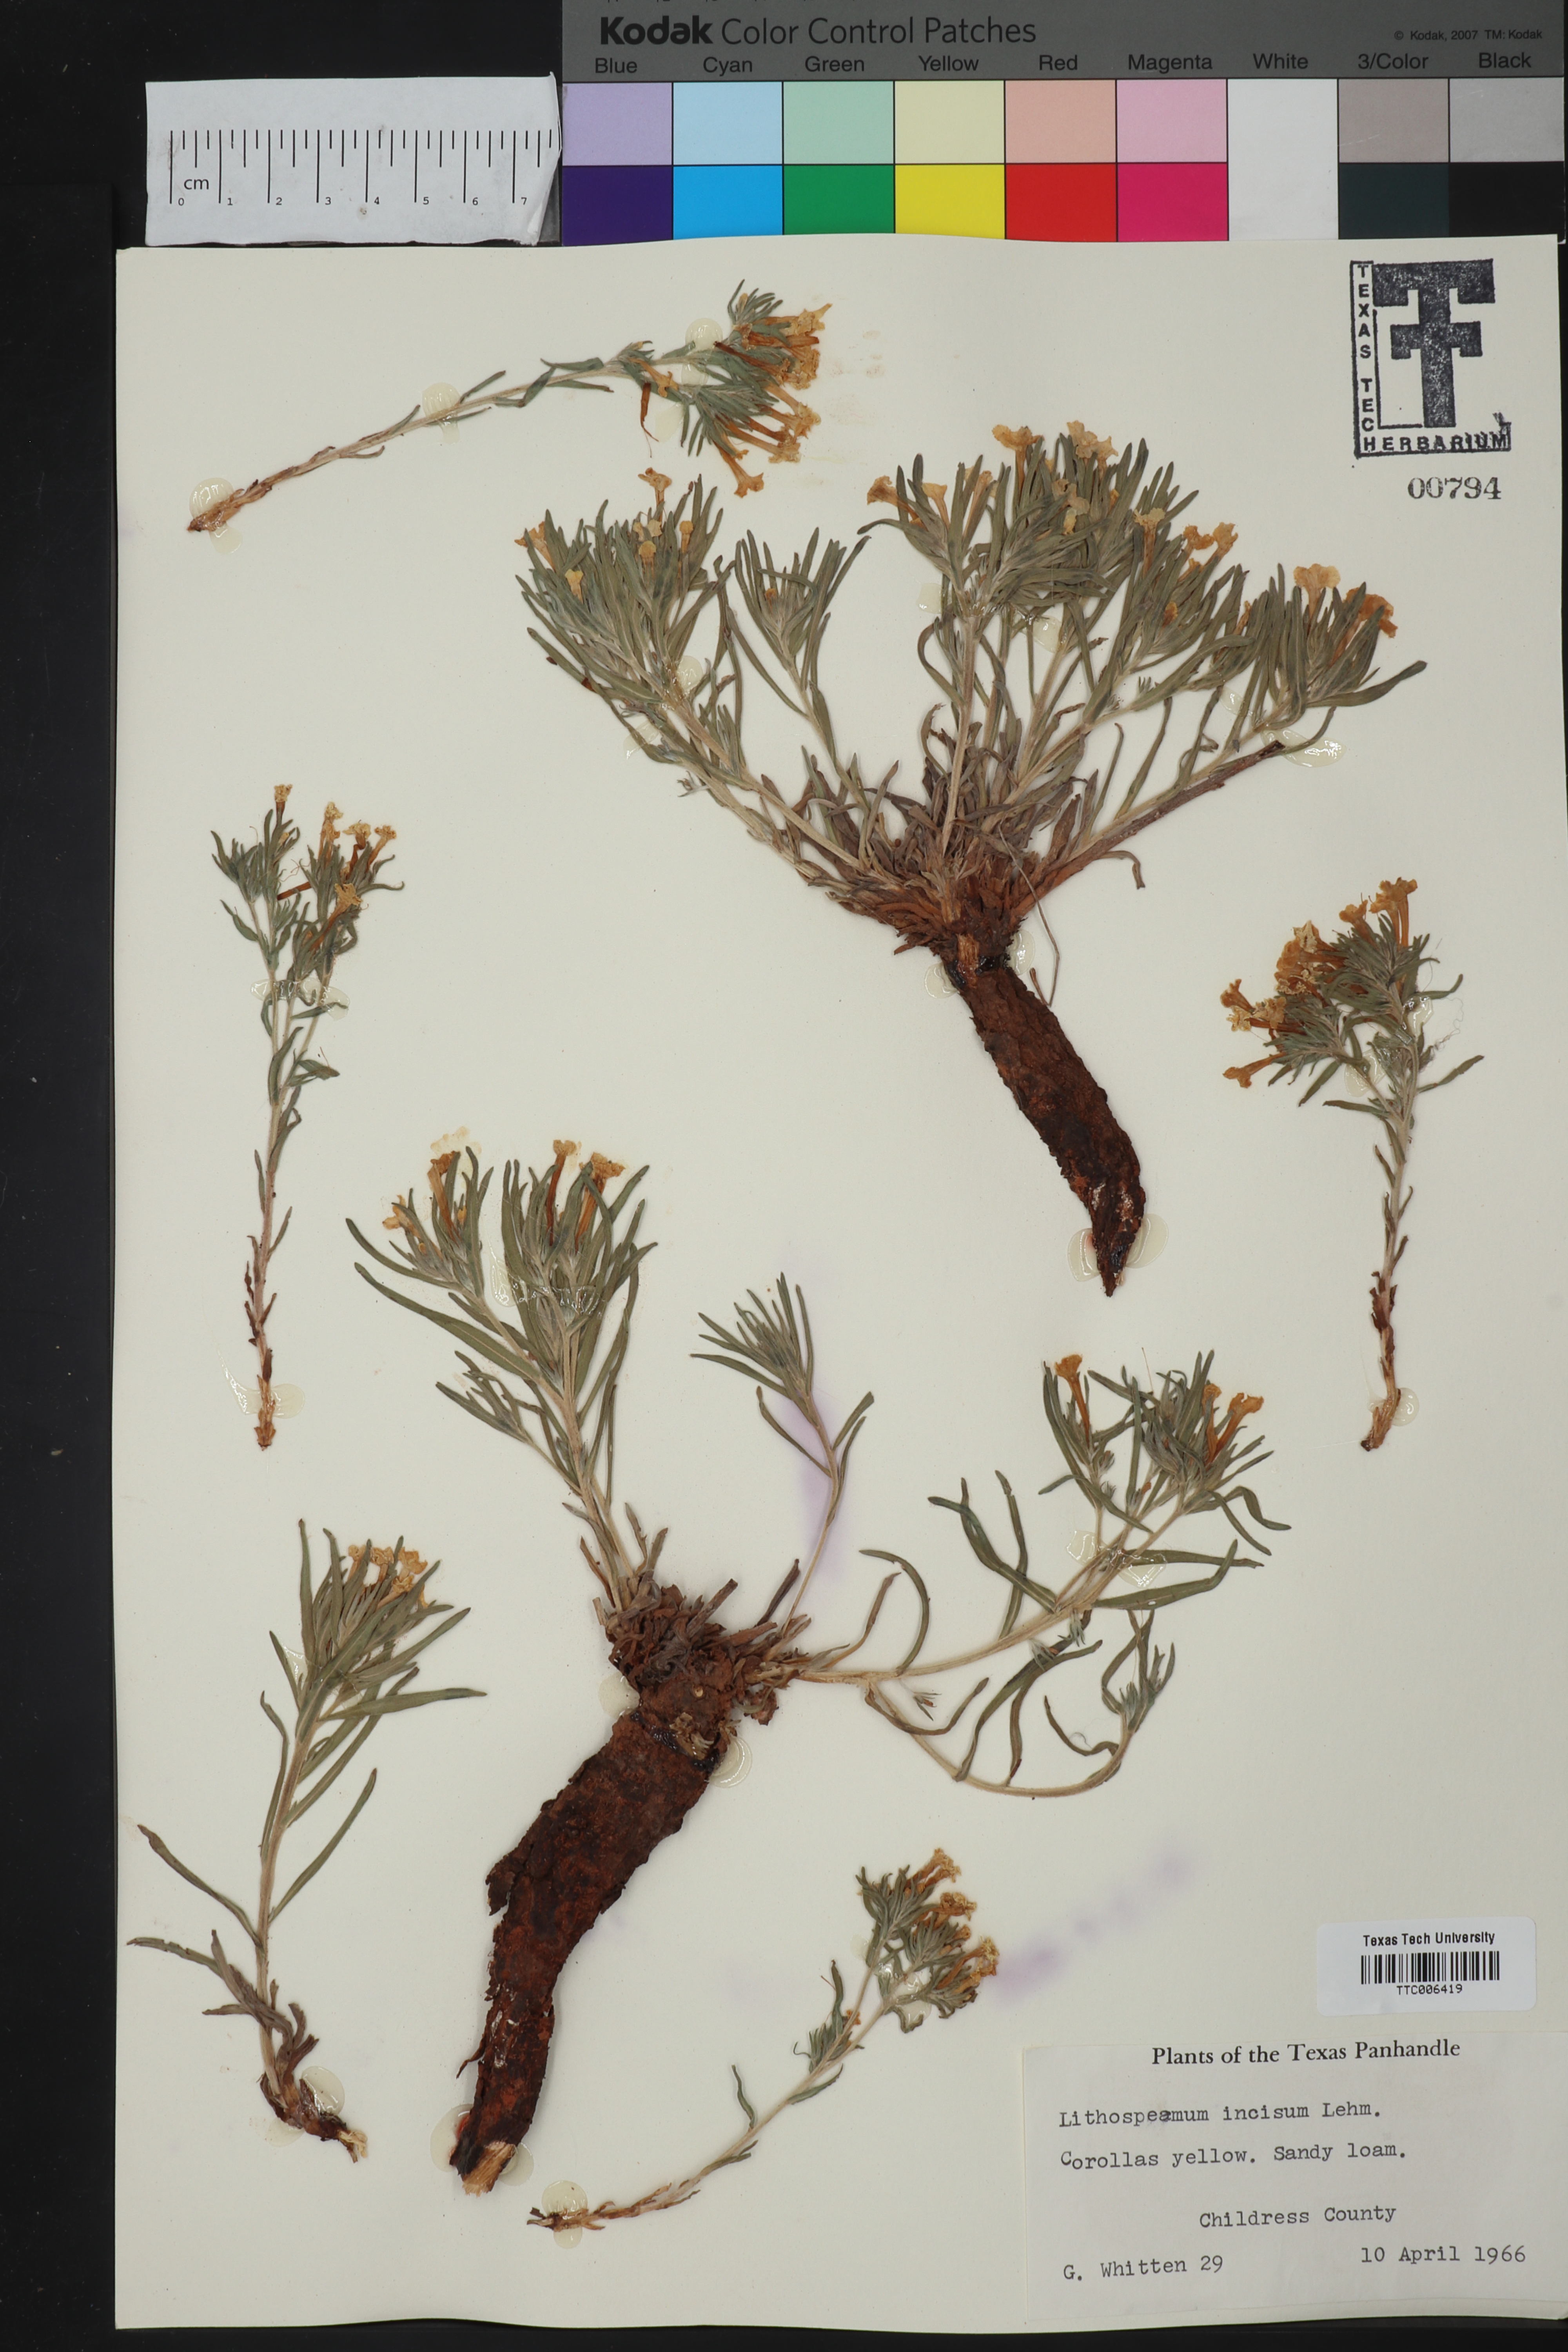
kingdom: Plantae
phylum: Tracheophyta
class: Magnoliopsida
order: Boraginales
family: Boraginaceae
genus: Lithospermum
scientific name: Lithospermum incisum
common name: Fringed gromwell
